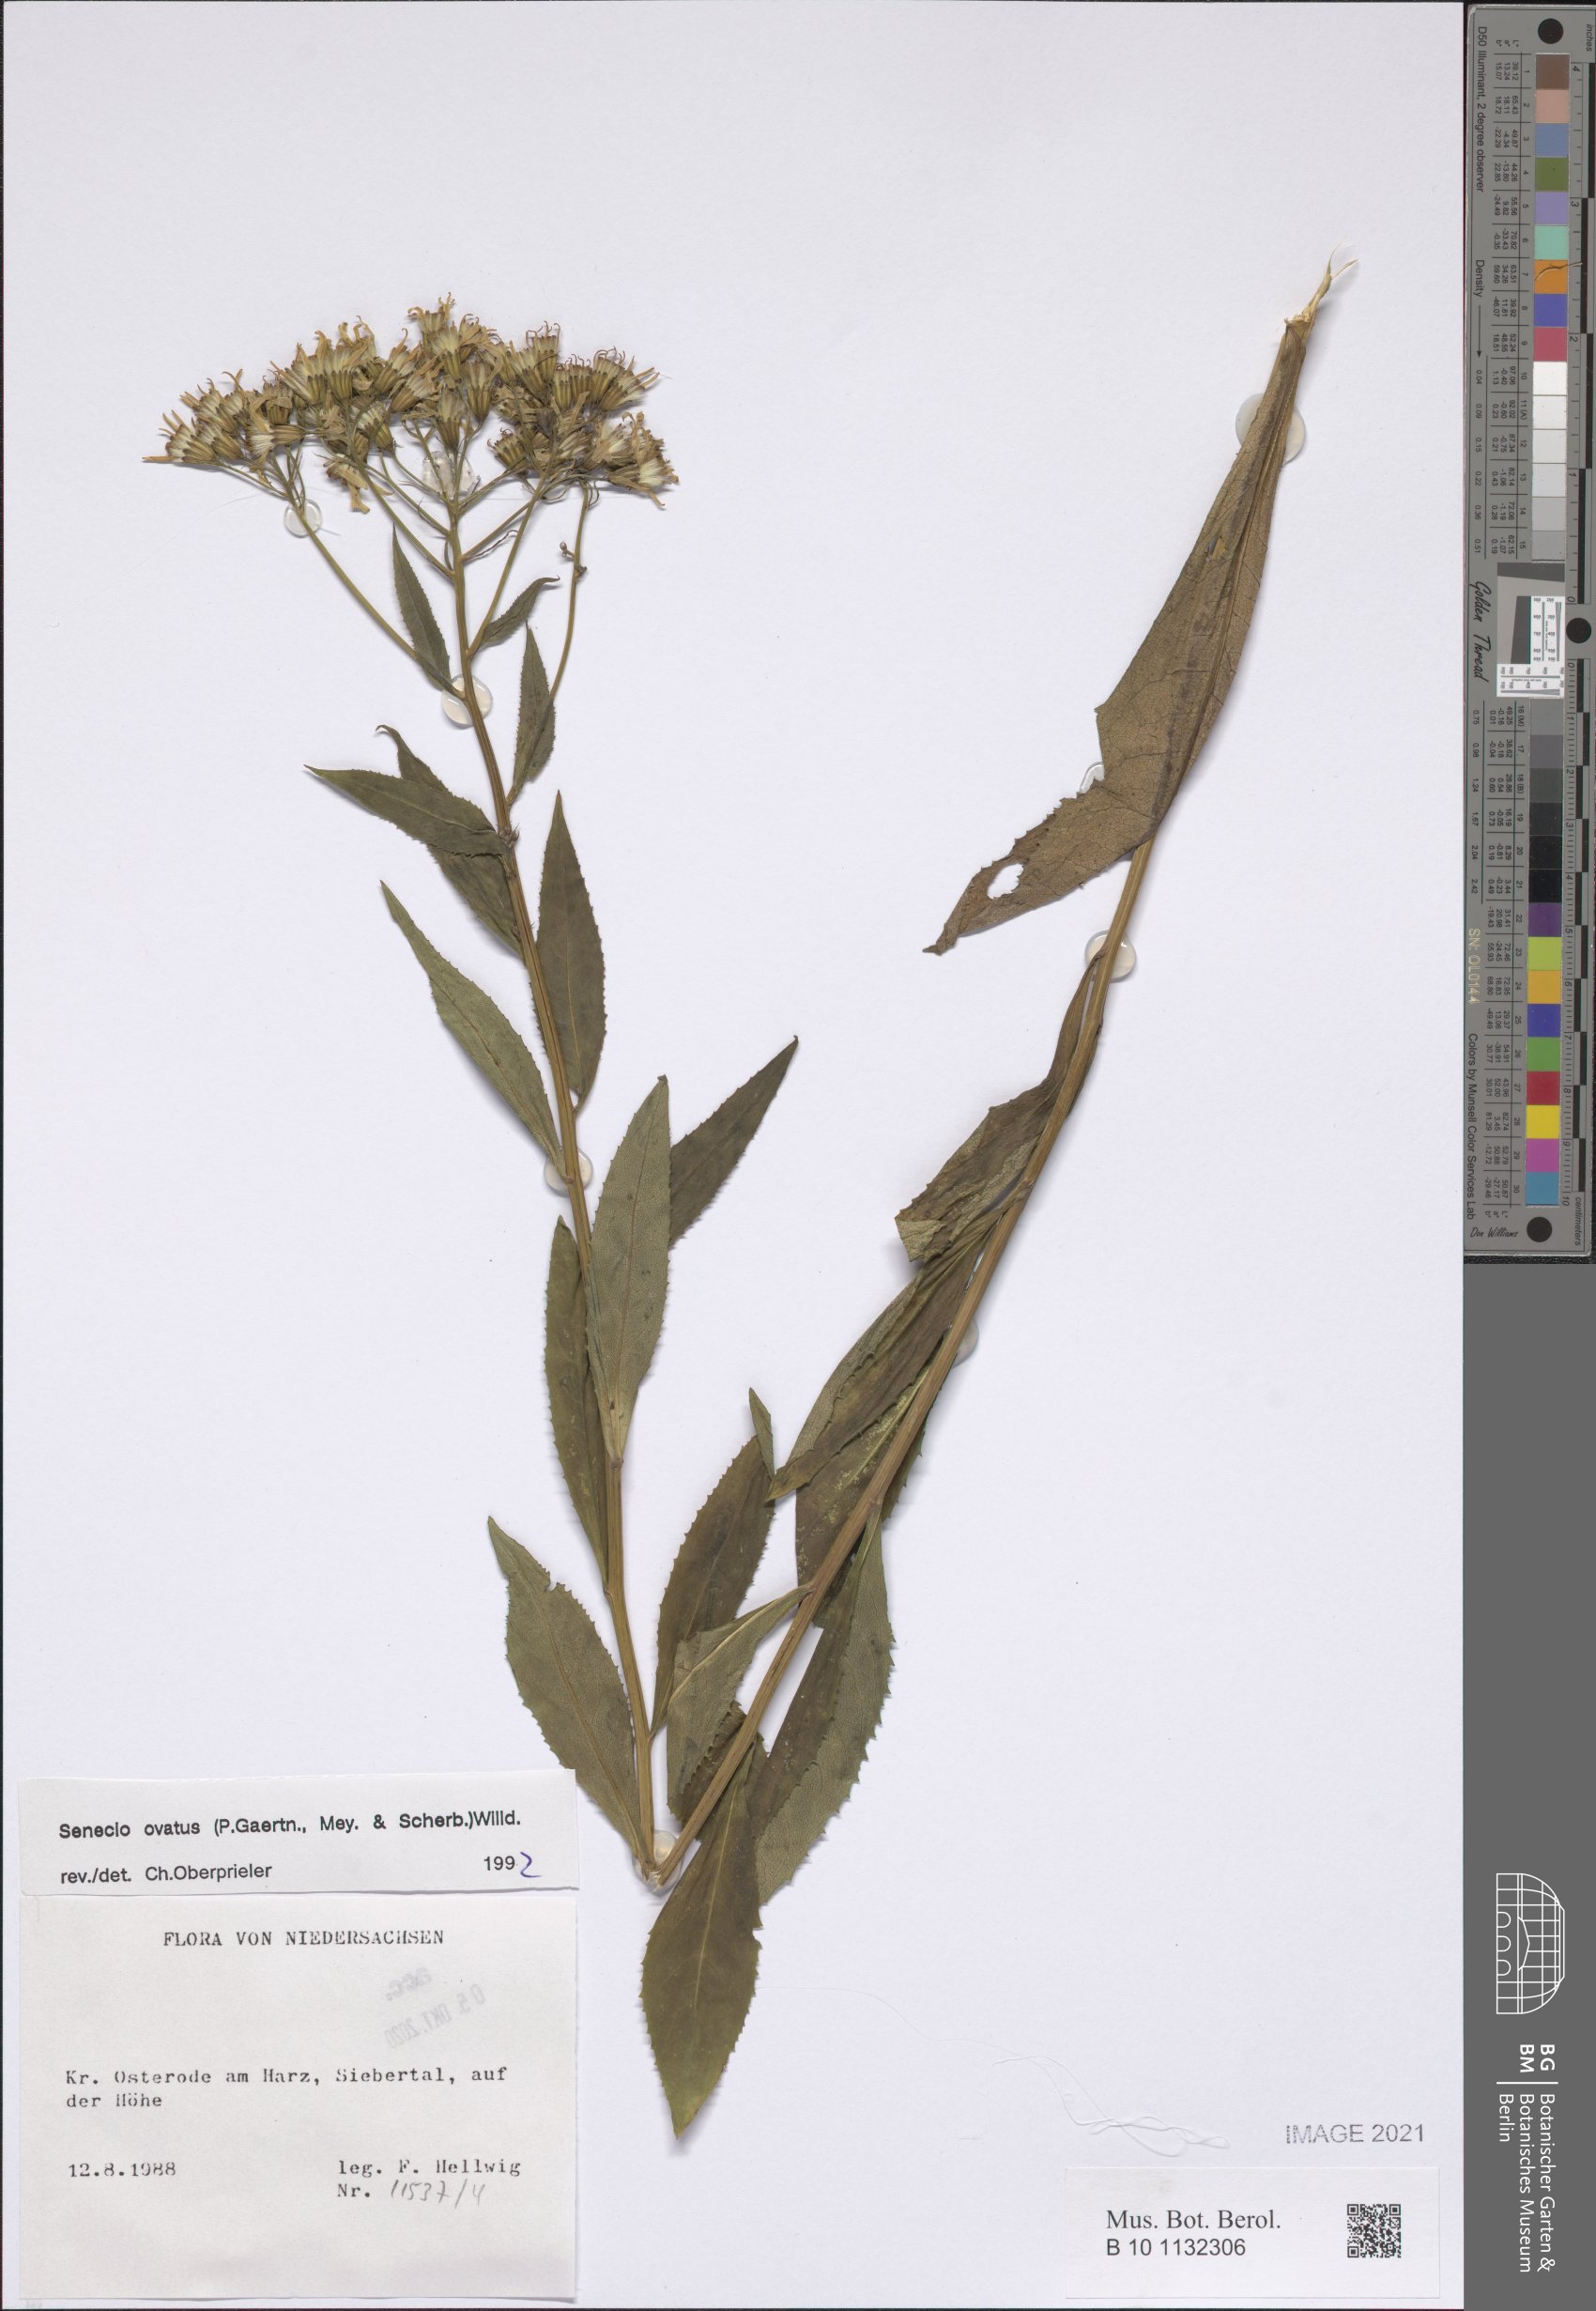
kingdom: Plantae
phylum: Tracheophyta
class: Magnoliopsida
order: Asterales
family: Asteraceae
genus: Senecio
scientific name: Senecio ovatus
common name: Wood ragwort
